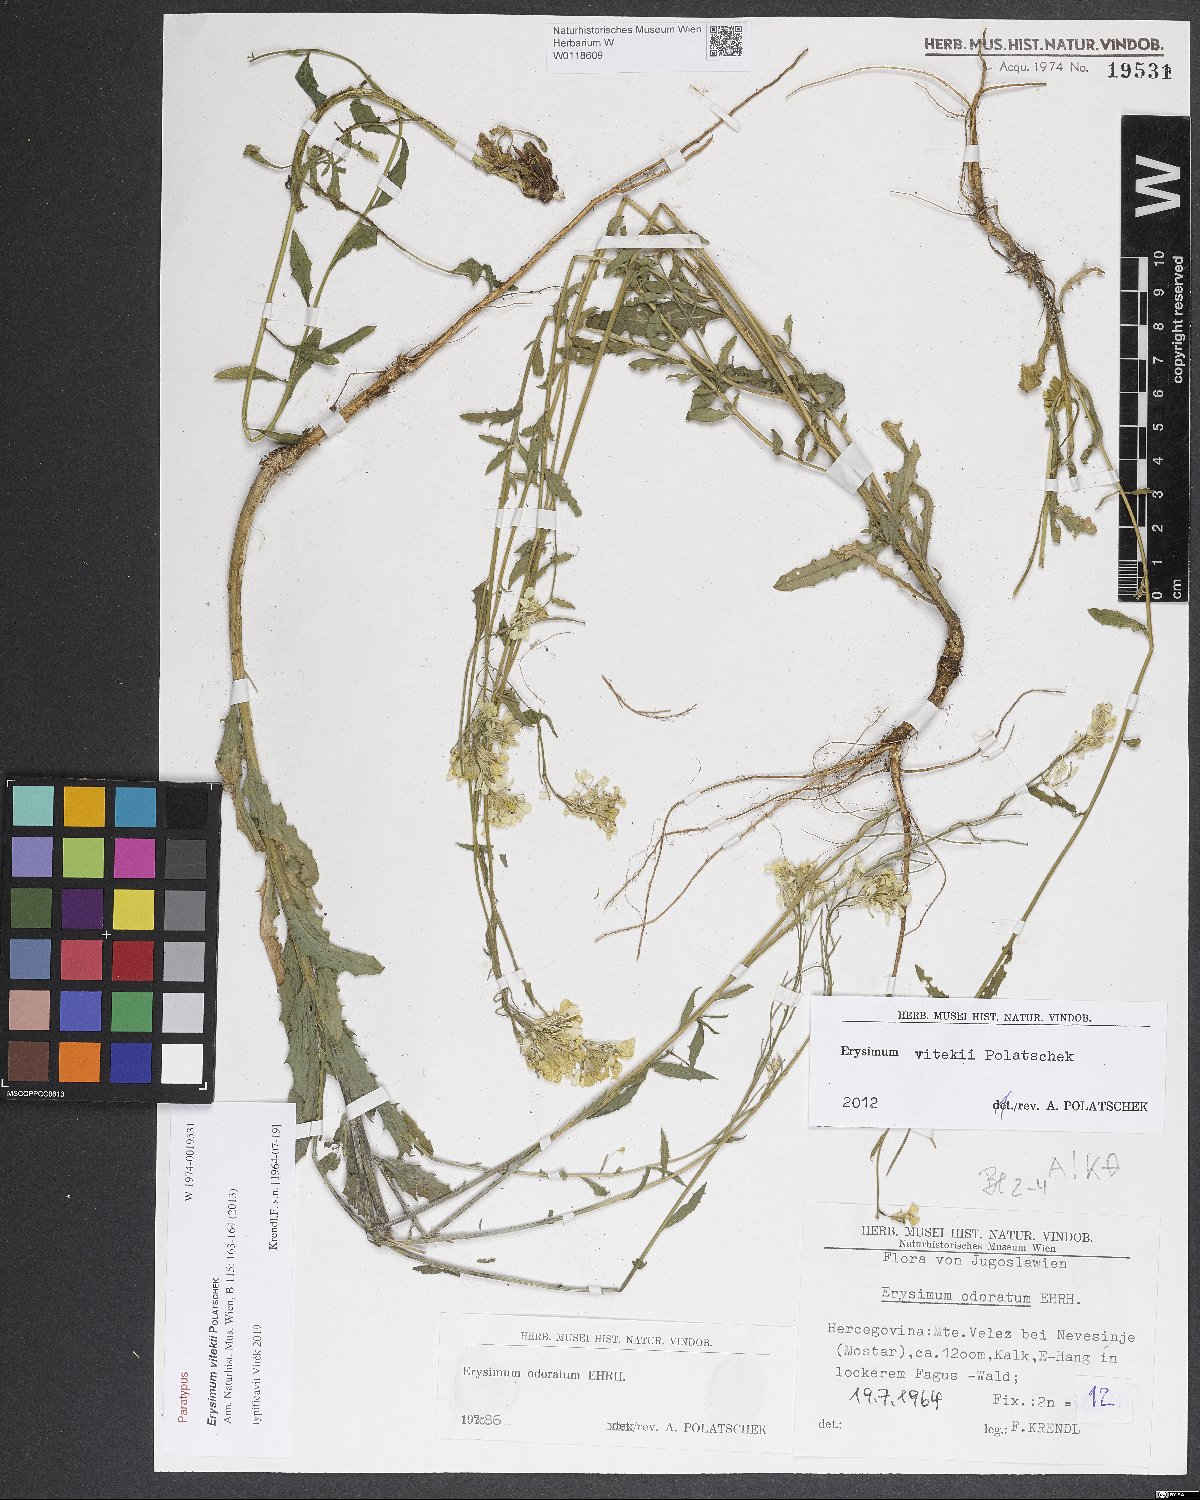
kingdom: Plantae
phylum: Tracheophyta
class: Magnoliopsida
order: Brassicales
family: Brassicaceae
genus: Erysimum
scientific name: Erysimum vitekii
